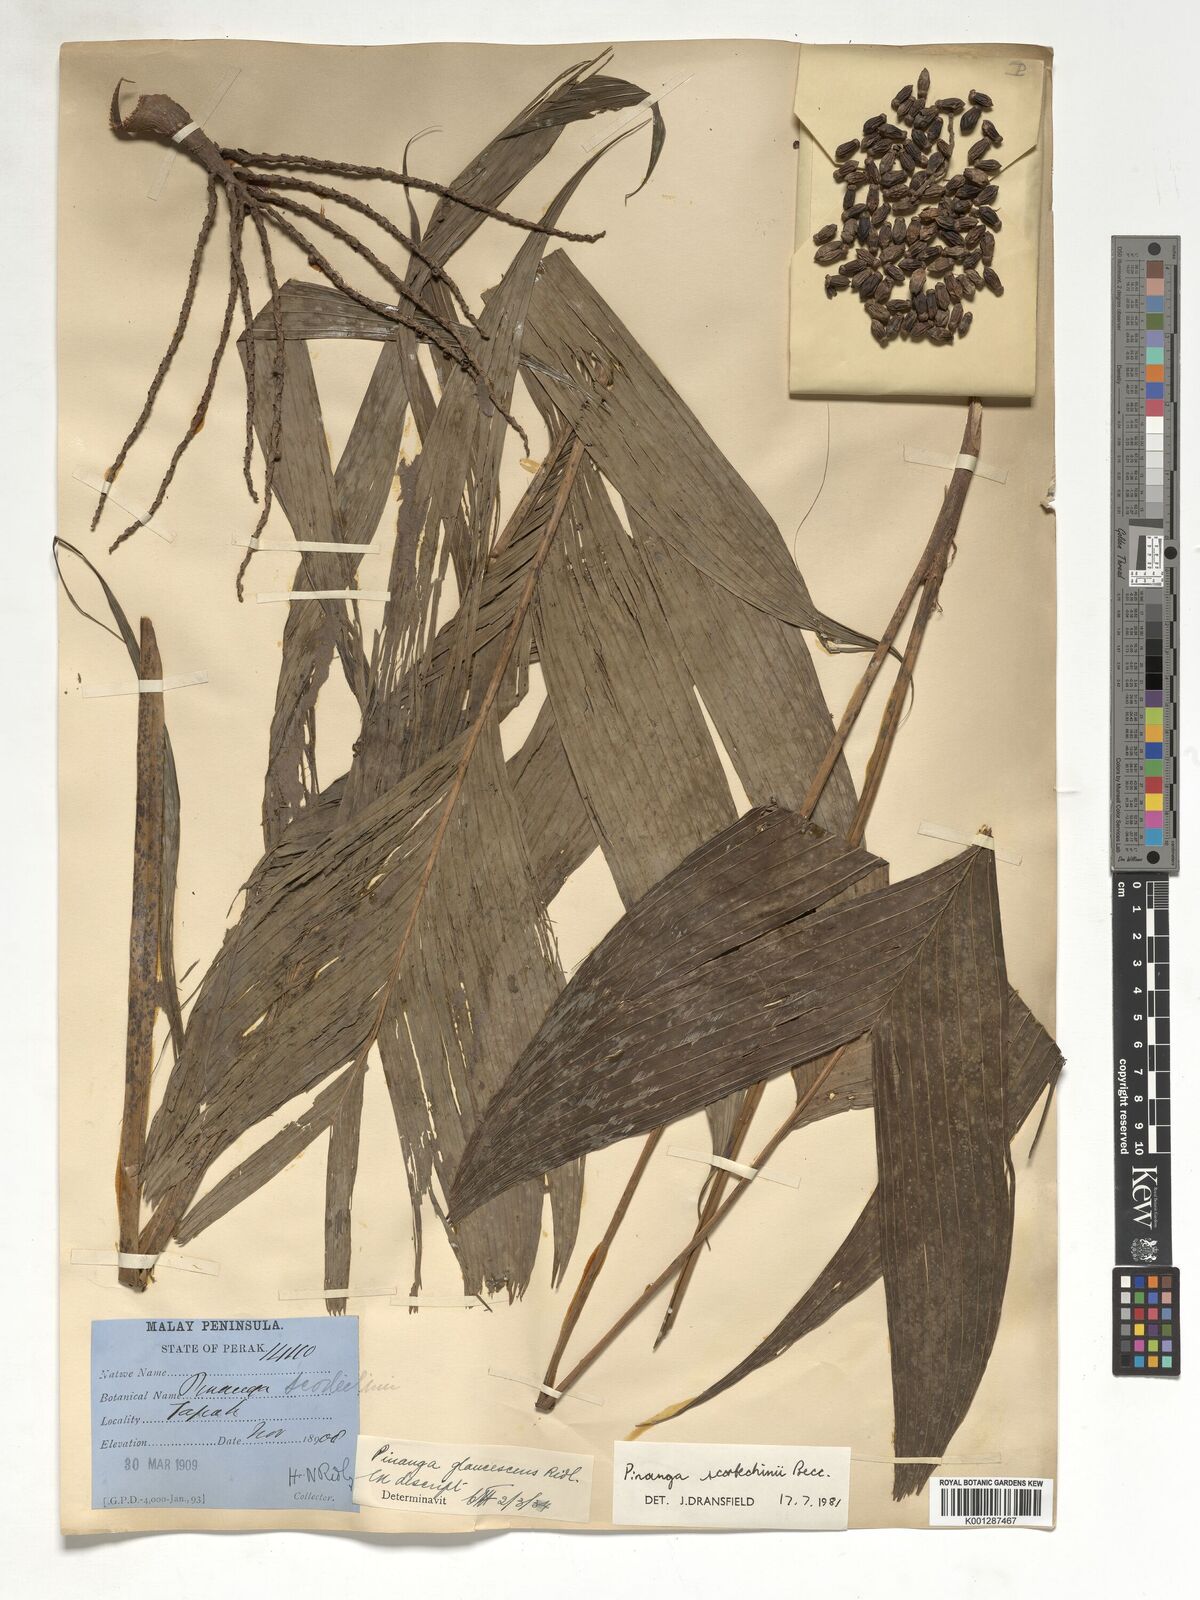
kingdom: Plantae
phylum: Tracheophyta
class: Liliopsida
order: Arecales
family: Arecaceae
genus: Pinanga
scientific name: Pinanga scortechinii
